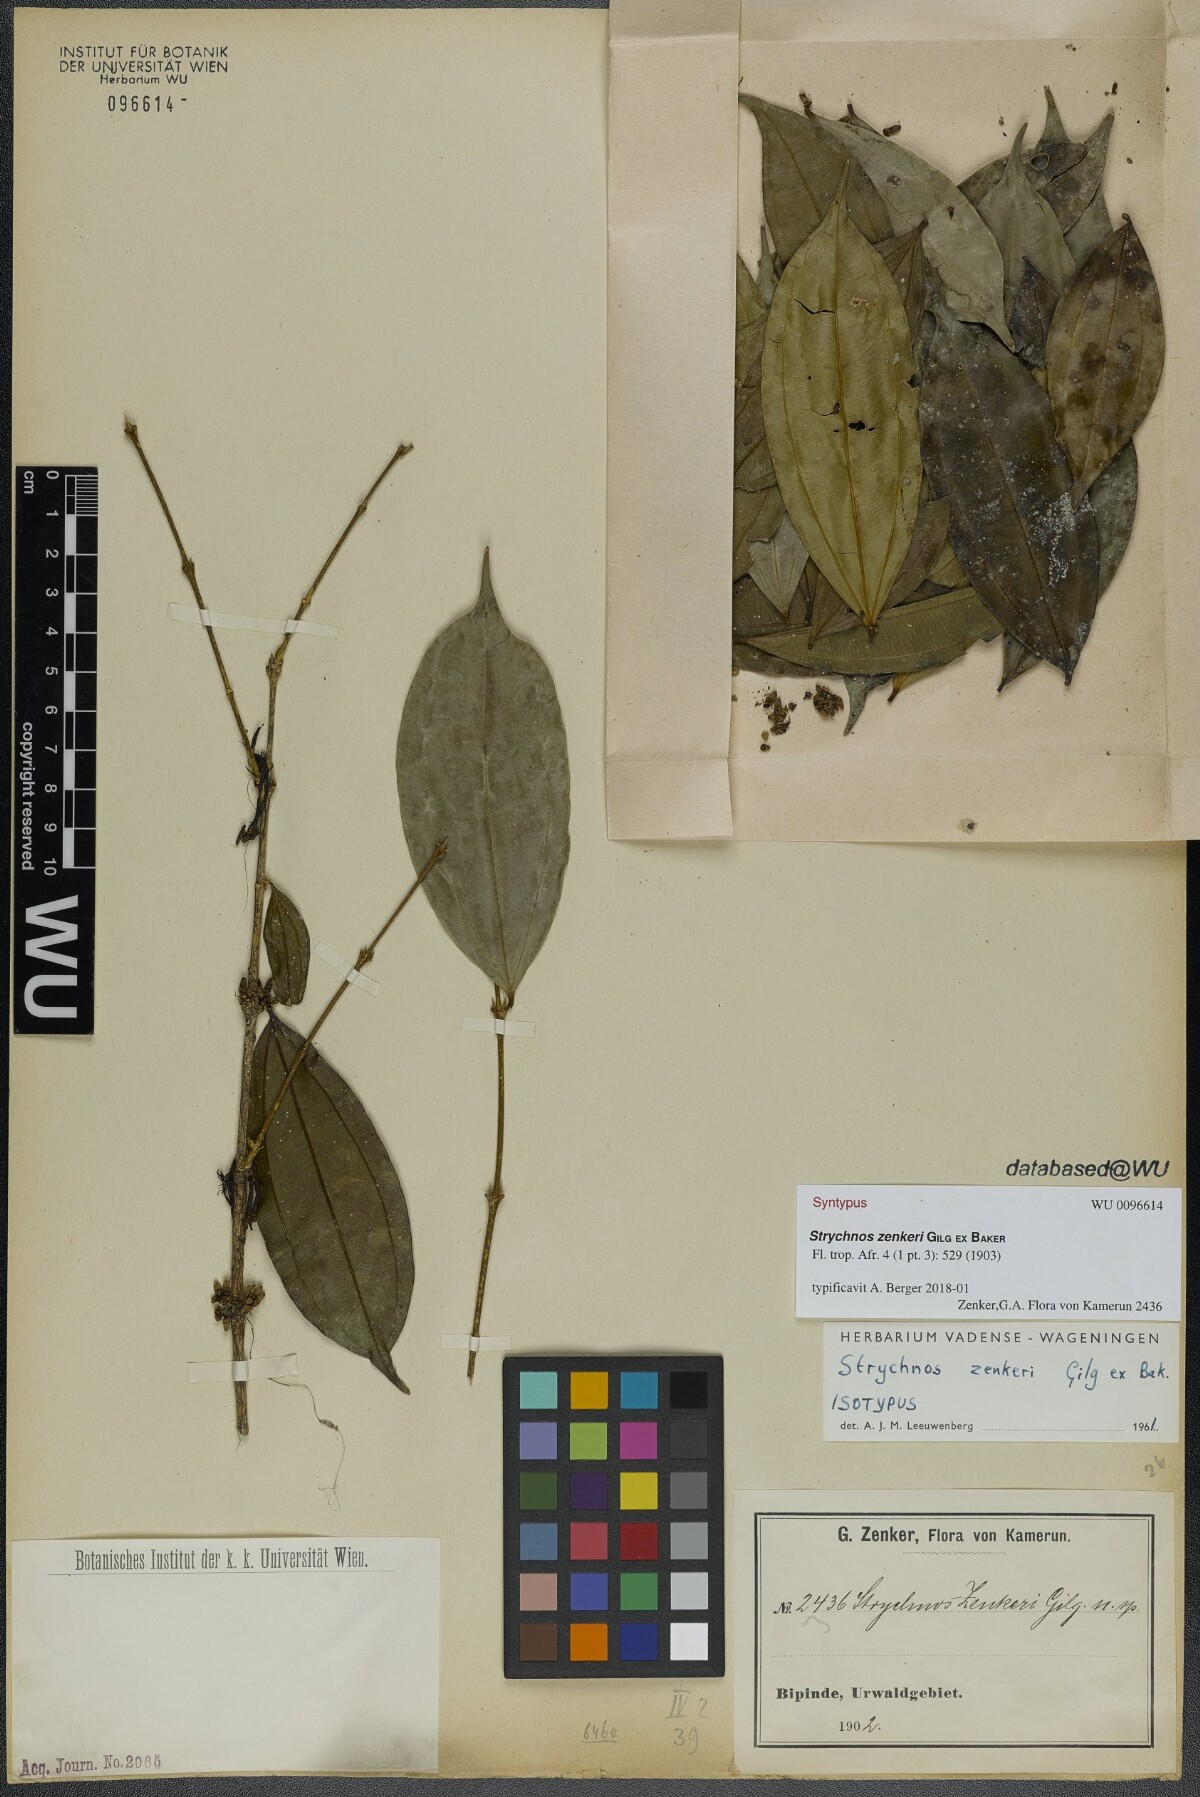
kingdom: Plantae
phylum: Tracheophyta
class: Magnoliopsida
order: Gentianales
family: Loganiaceae
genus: Strychnos
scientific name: Strychnos zenkeri
